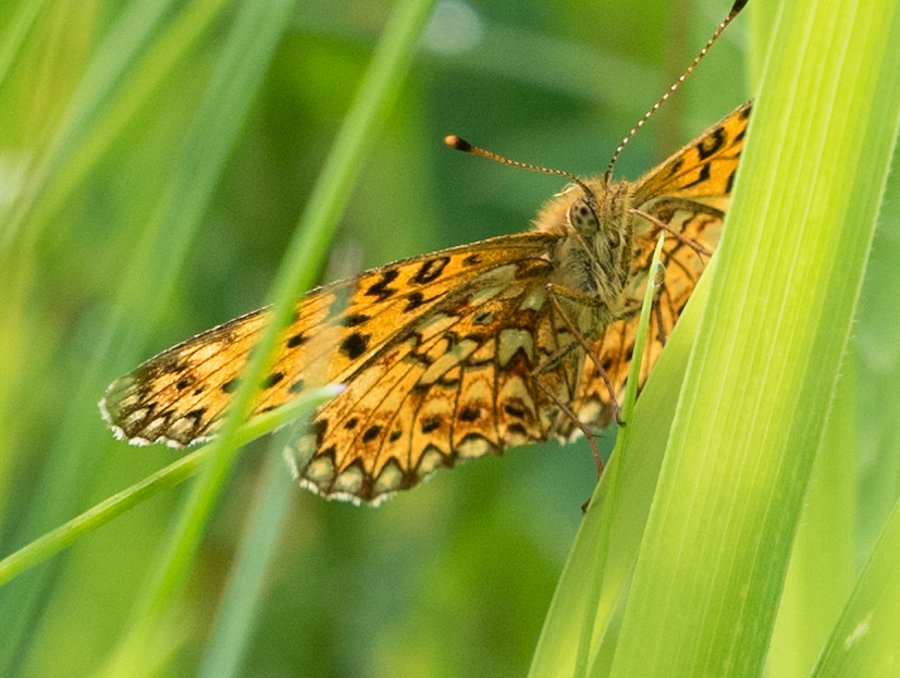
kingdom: Animalia
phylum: Arthropoda
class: Insecta
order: Lepidoptera
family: Nymphalidae
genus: Boloria
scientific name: Boloria selene
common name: Silver-bordered Fritillary
